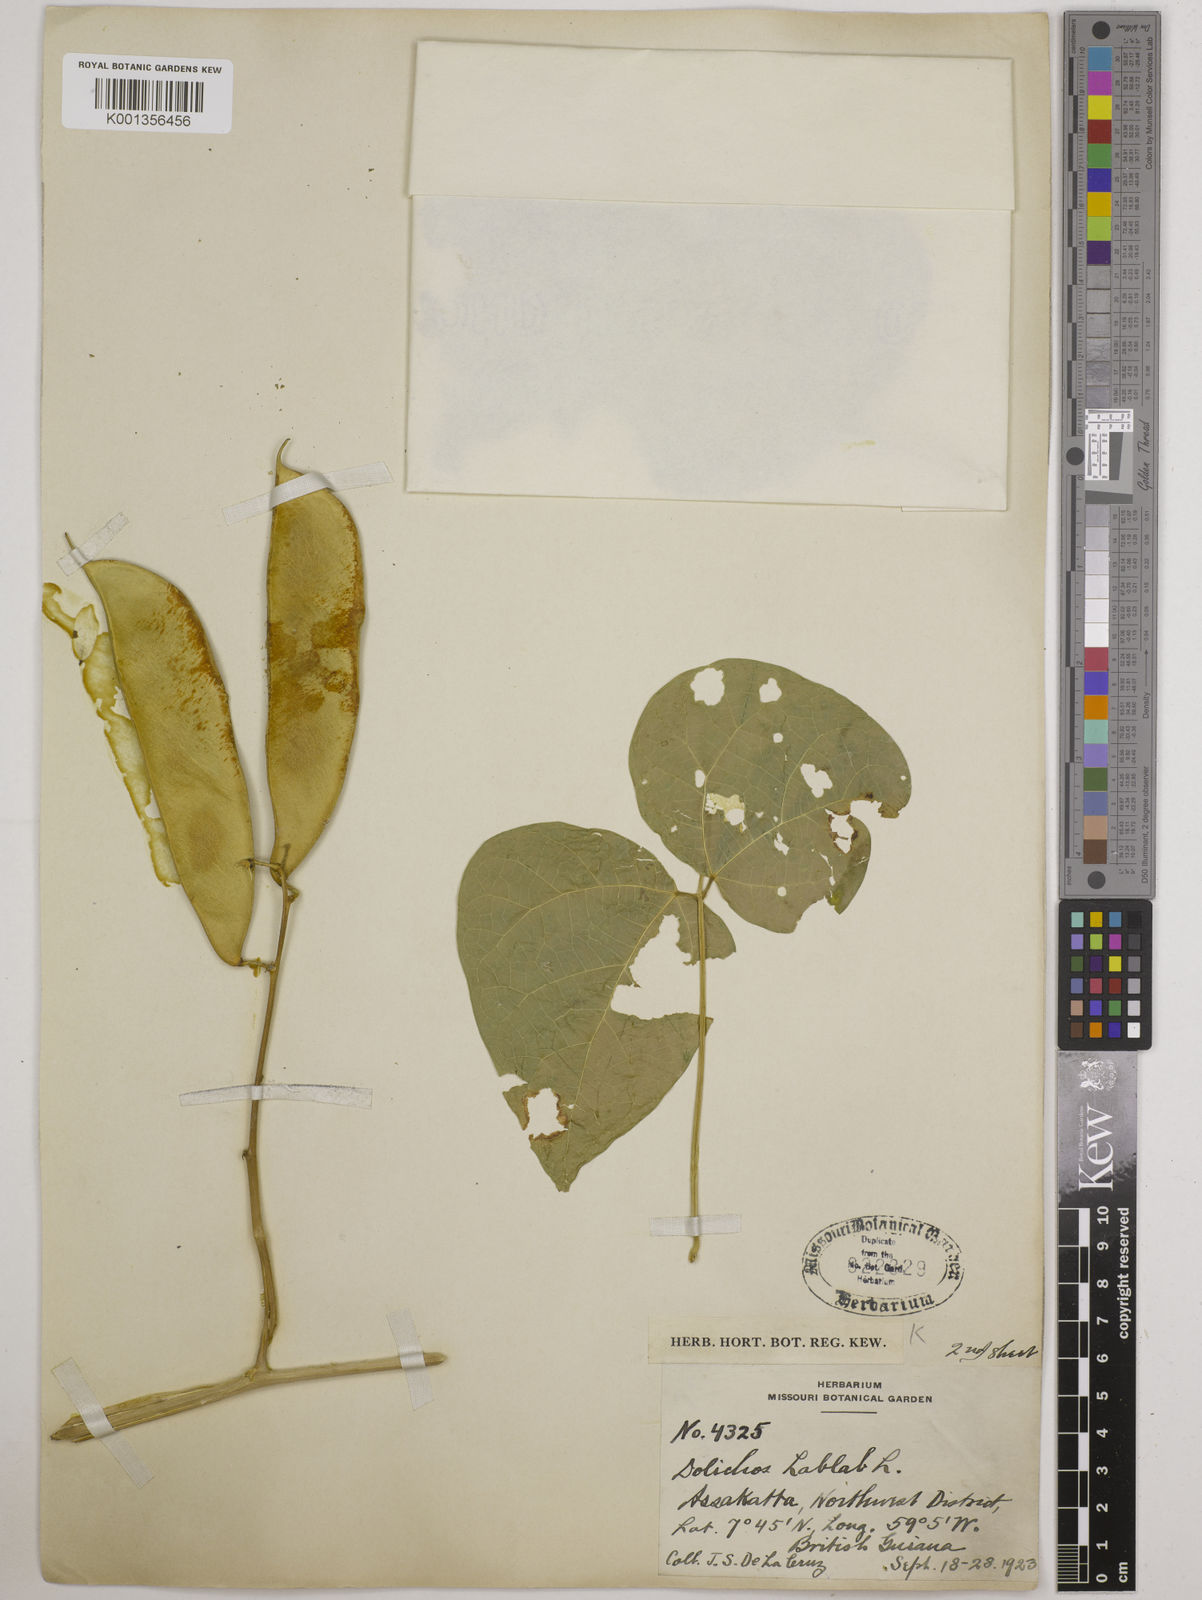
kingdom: Plantae
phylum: Tracheophyta
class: Magnoliopsida
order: Fabales
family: Fabaceae
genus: Lablab
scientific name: Lablab purpureus
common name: Lablab-bean
